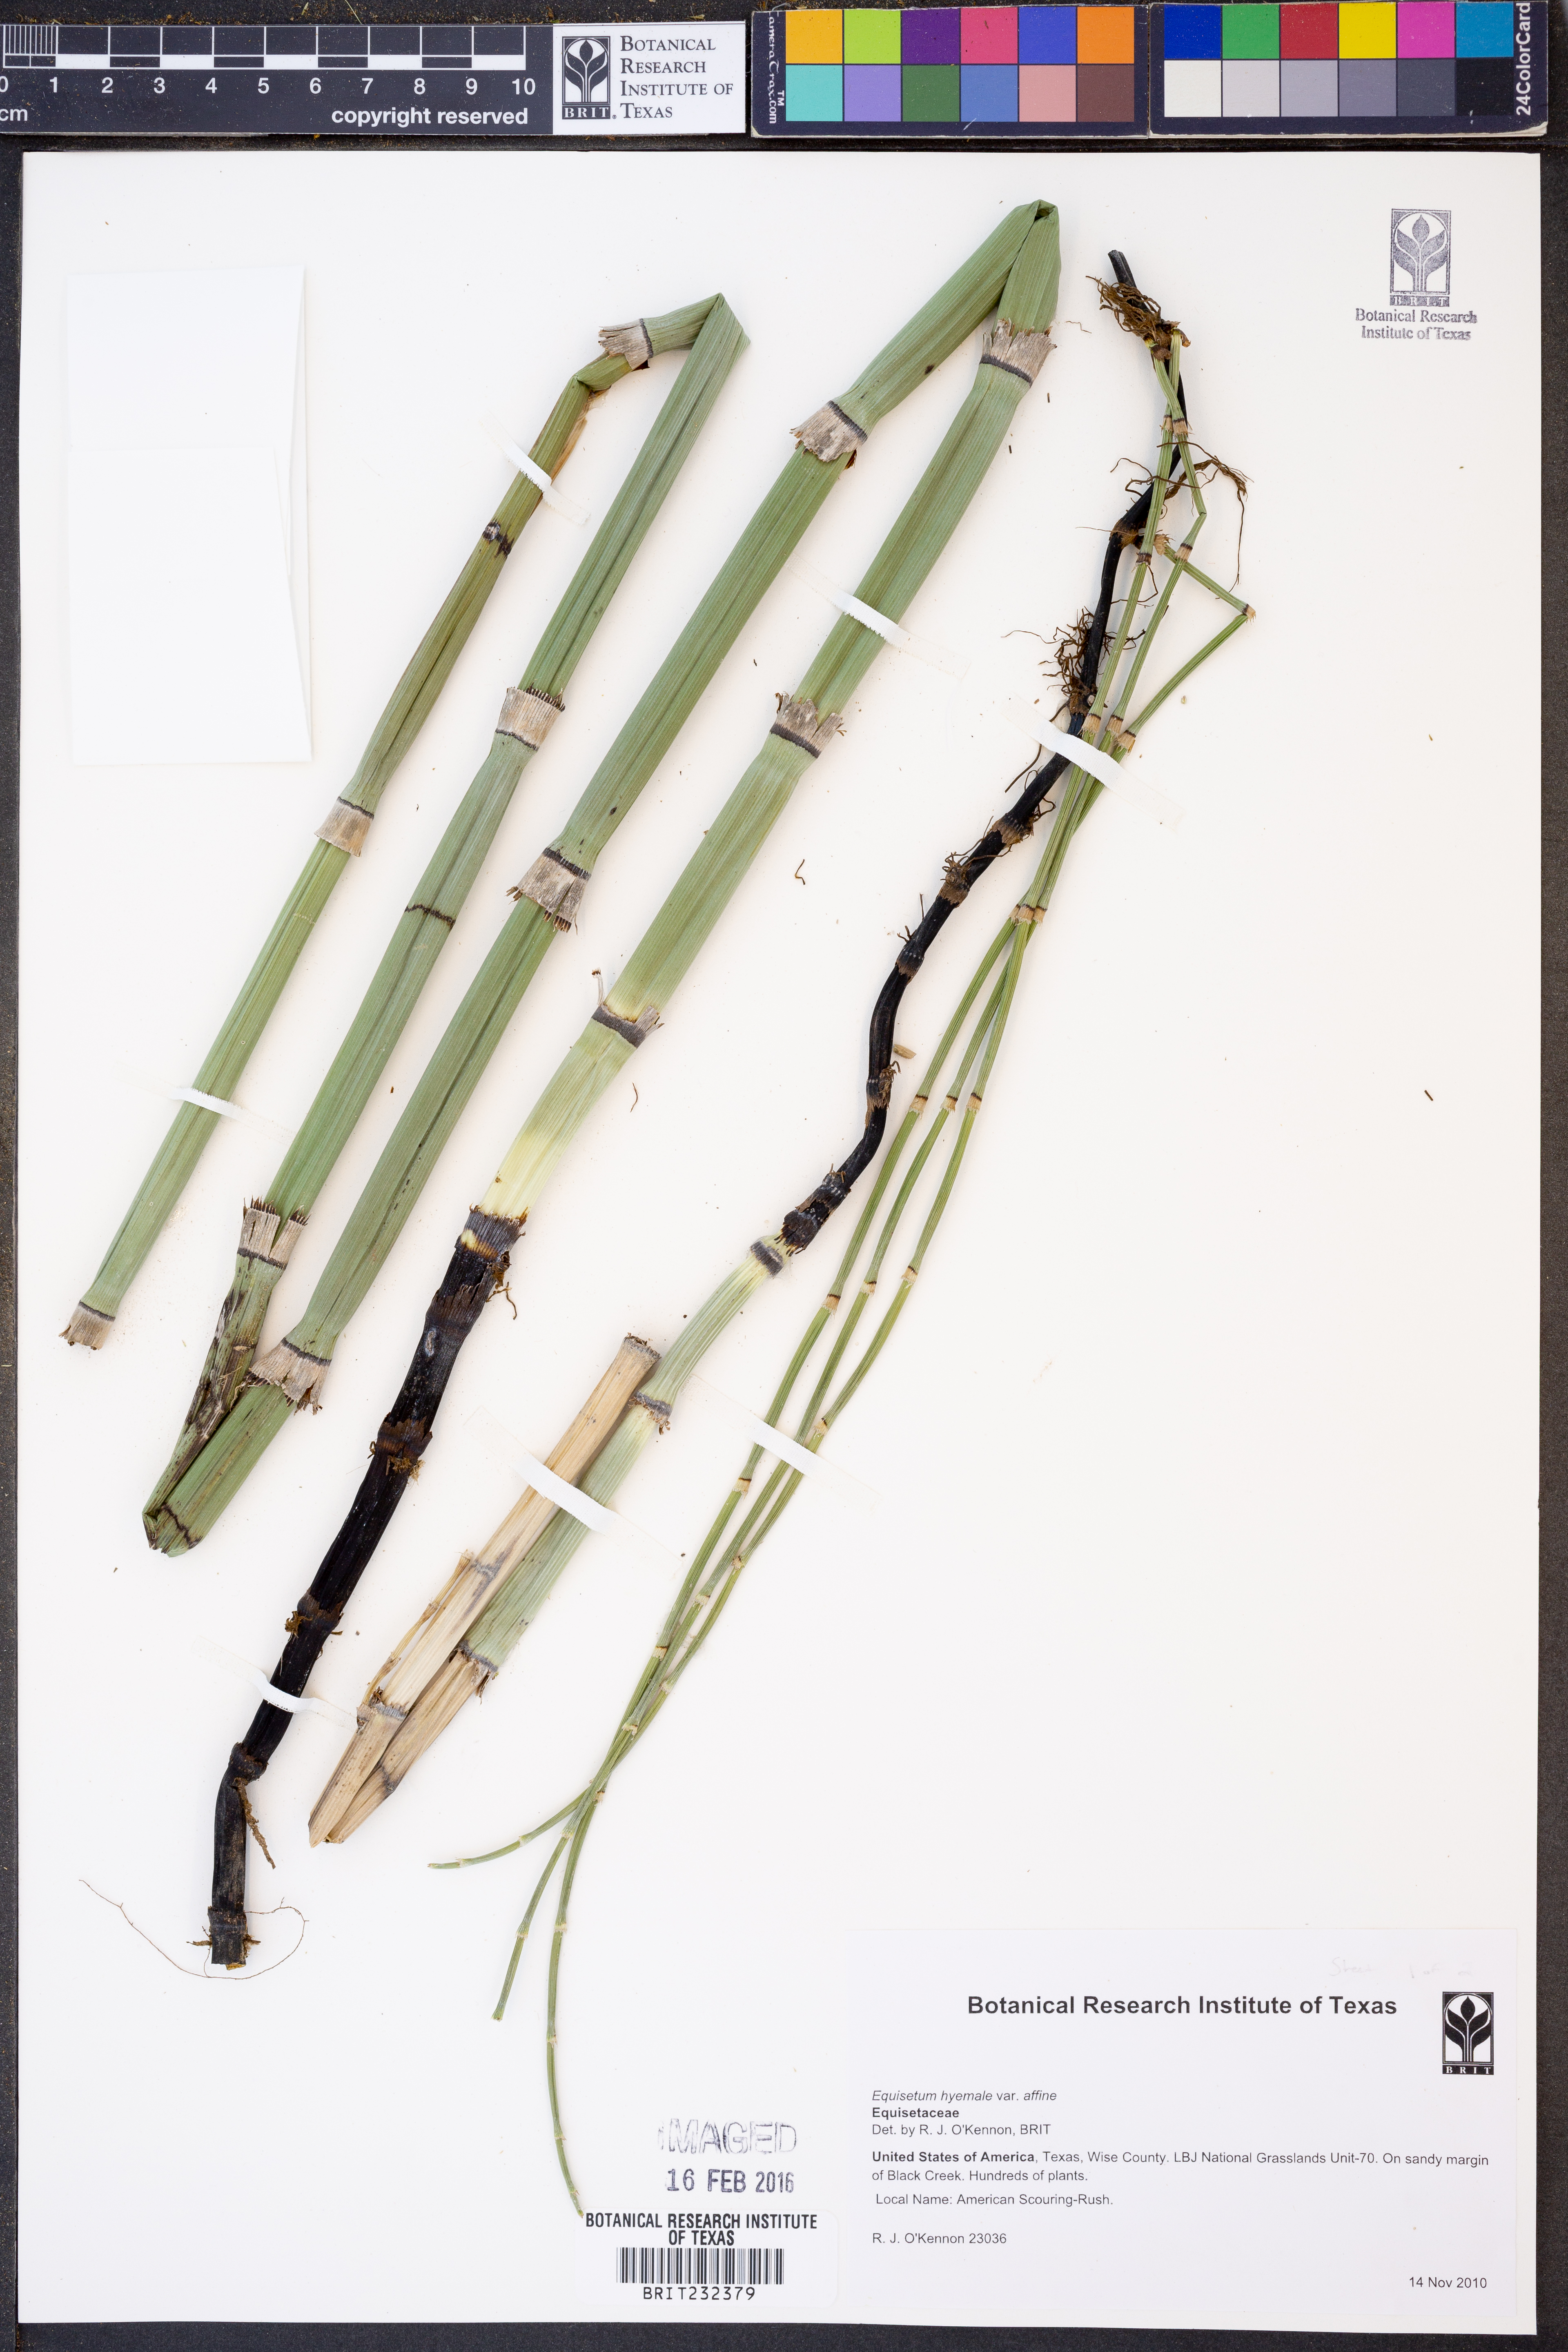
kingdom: Plantae
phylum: Tracheophyta
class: Polypodiopsida
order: Equisetales
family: Equisetaceae
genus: Equisetum
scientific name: Equisetum praealtum
